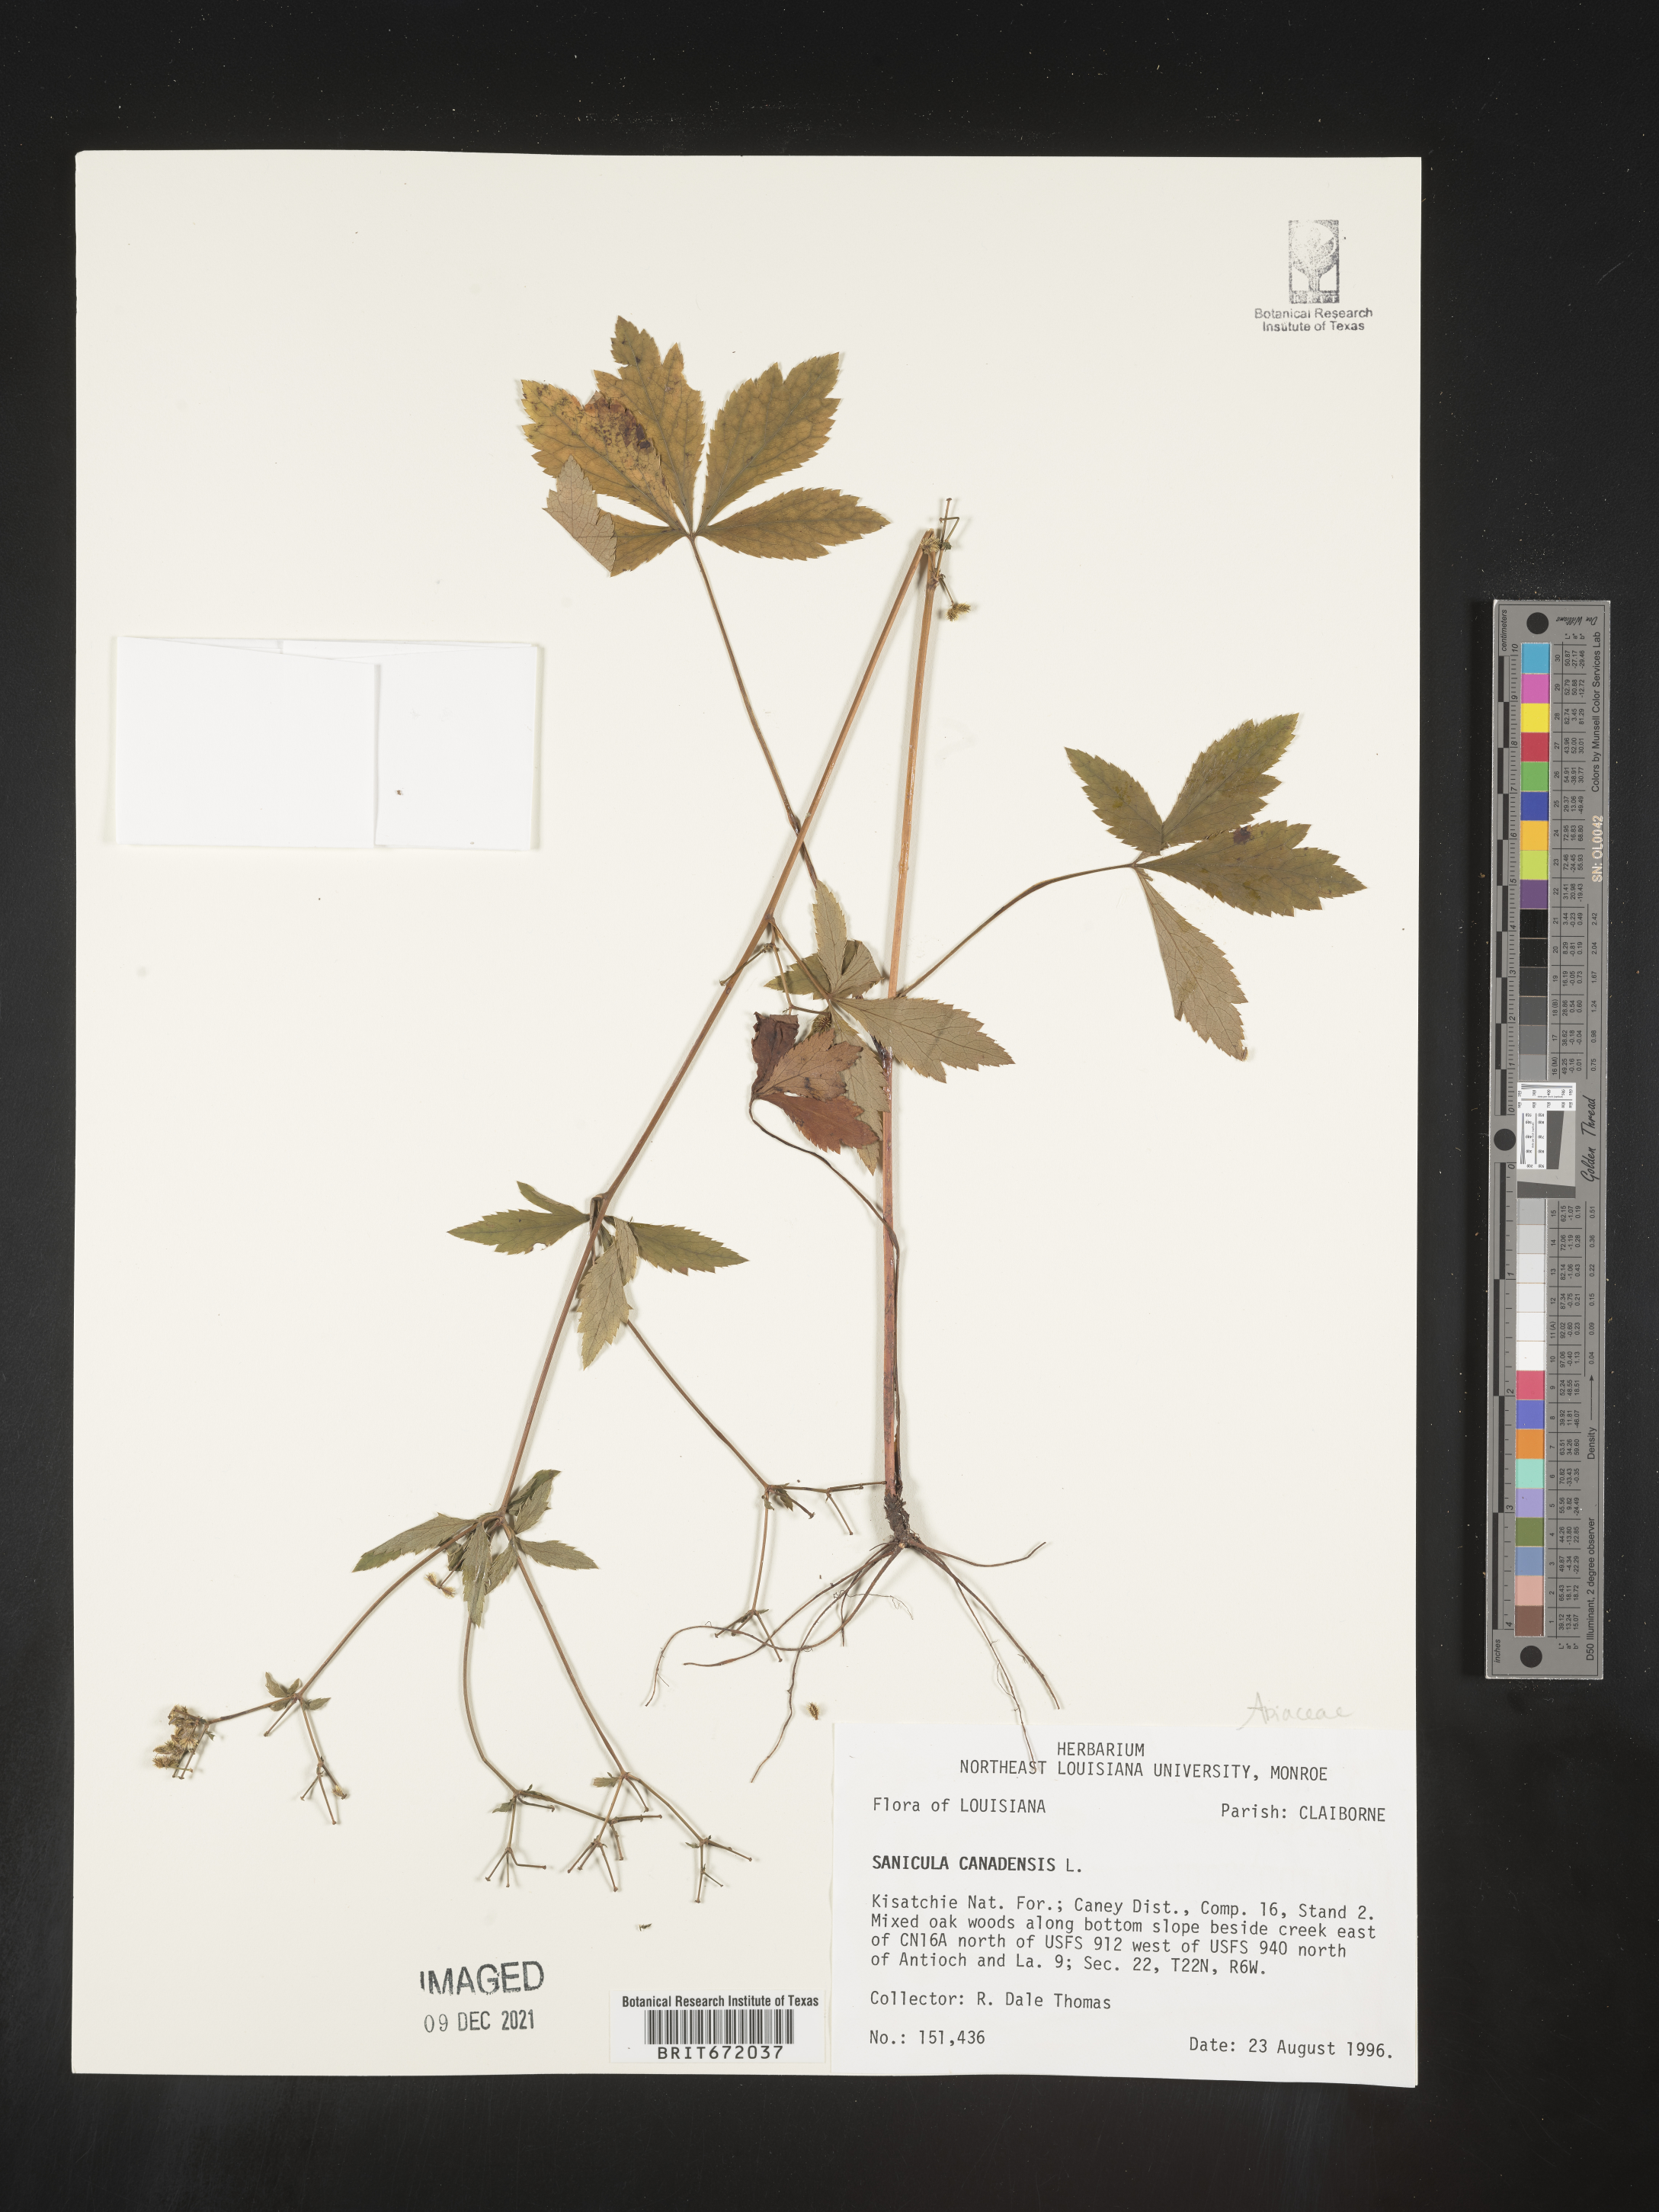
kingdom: Plantae
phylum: Tracheophyta
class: Magnoliopsida
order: Apiales
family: Apiaceae
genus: Sanicula
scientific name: Sanicula canadensis
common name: Canada sanicle
